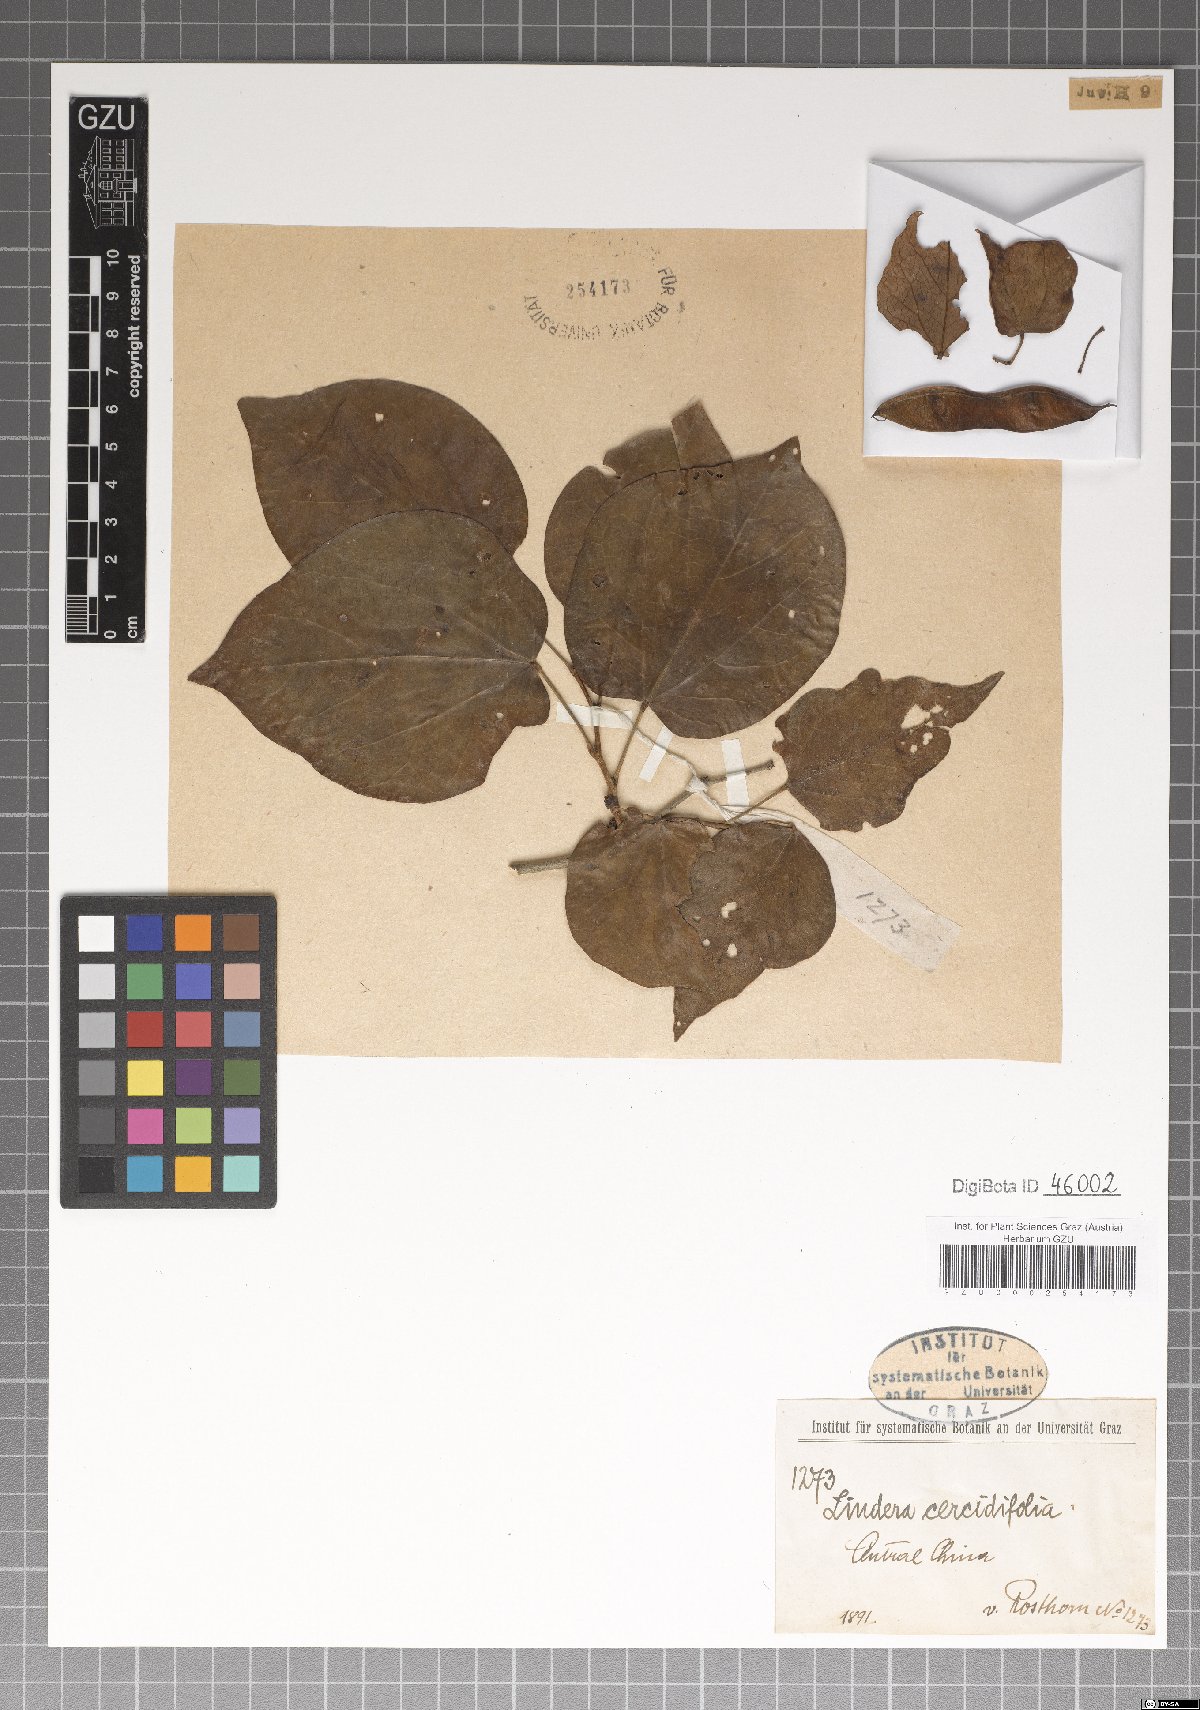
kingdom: Plantae
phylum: Tracheophyta
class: Magnoliopsida
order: Laurales
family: Lauraceae
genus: Lindera
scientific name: Lindera obtusiloba
